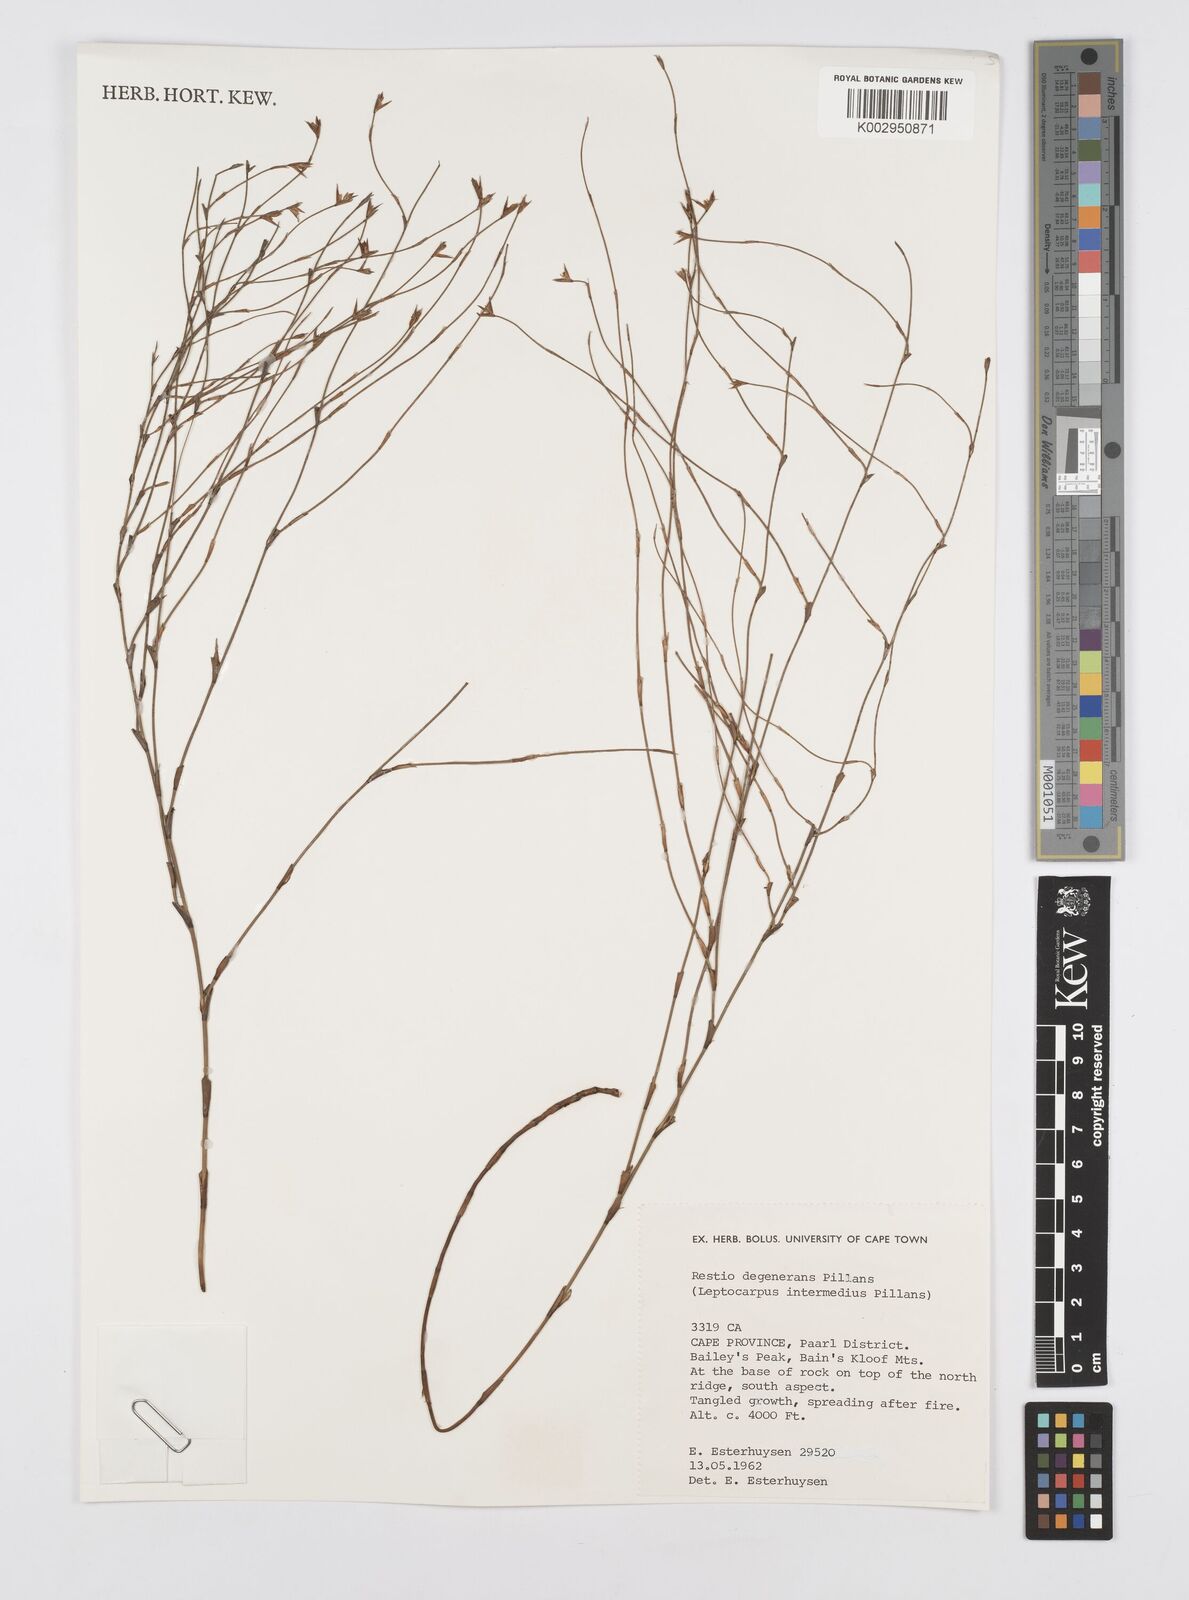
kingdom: Plantae
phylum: Tracheophyta
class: Liliopsida
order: Poales
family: Restionaceae
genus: Restio
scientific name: Restio degenerans
